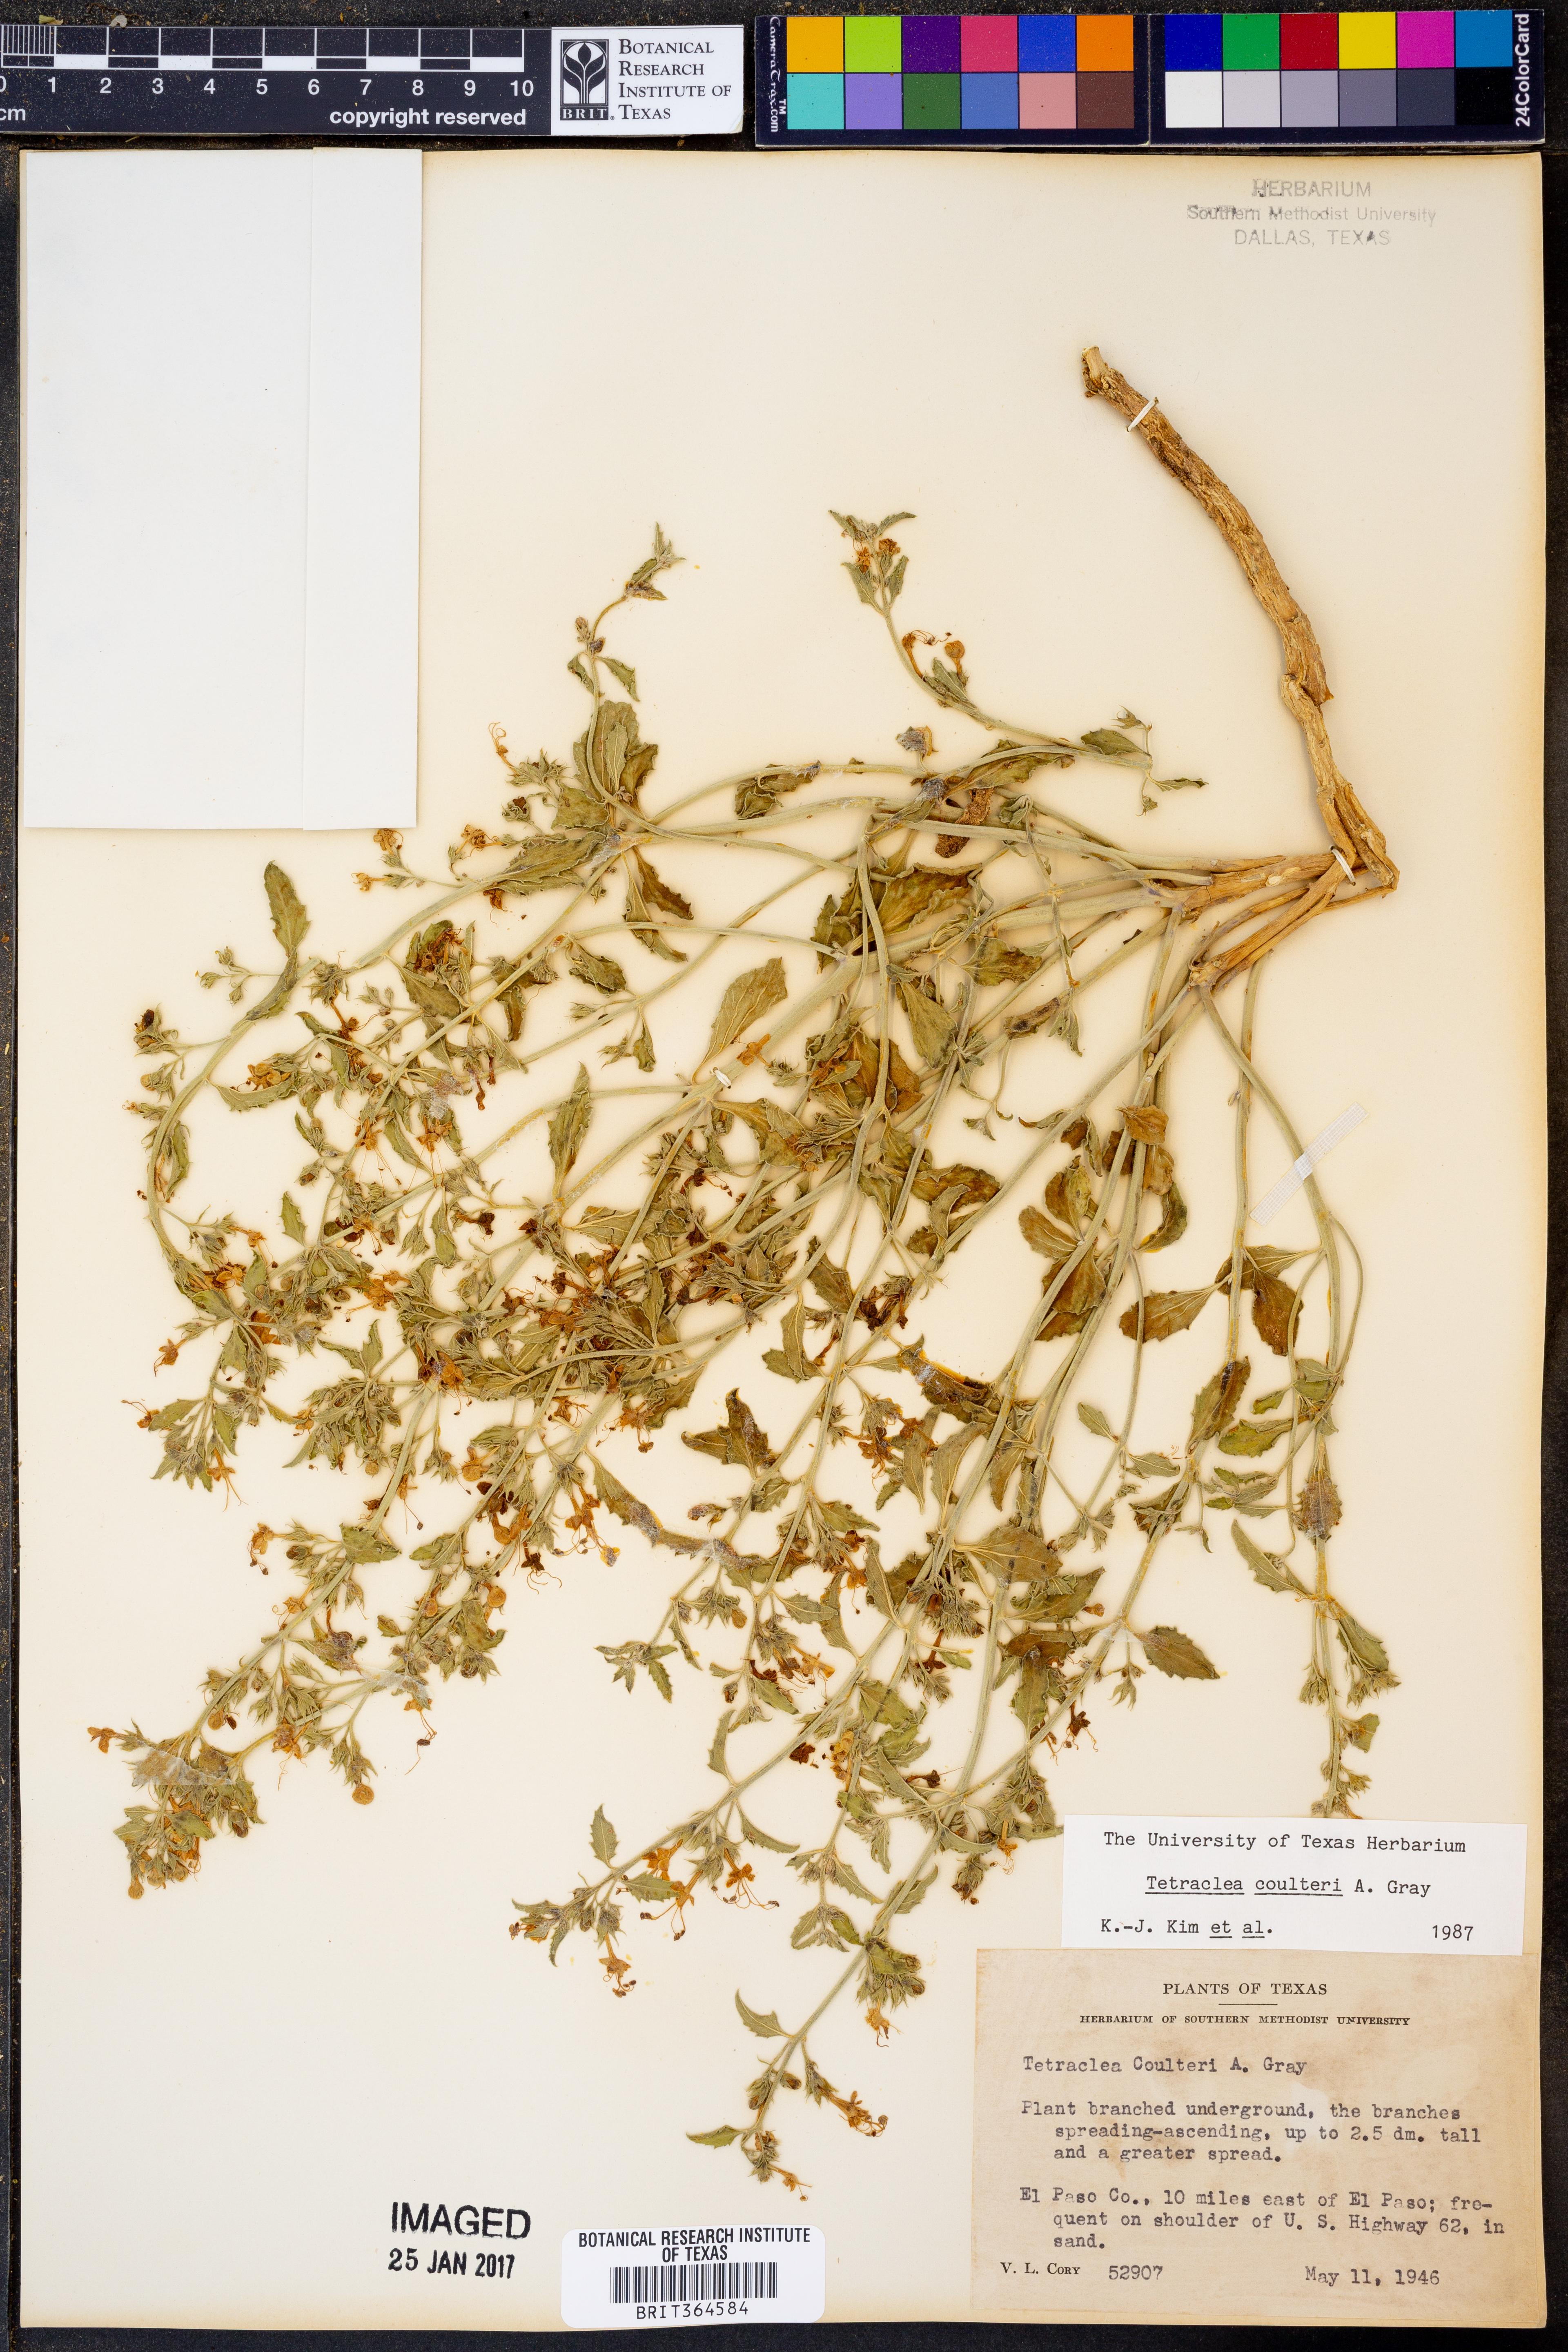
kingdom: Plantae
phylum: Tracheophyta
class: Magnoliopsida
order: Lamiales
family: Lamiaceae
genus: Tetraclea
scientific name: Tetraclea coulteri
